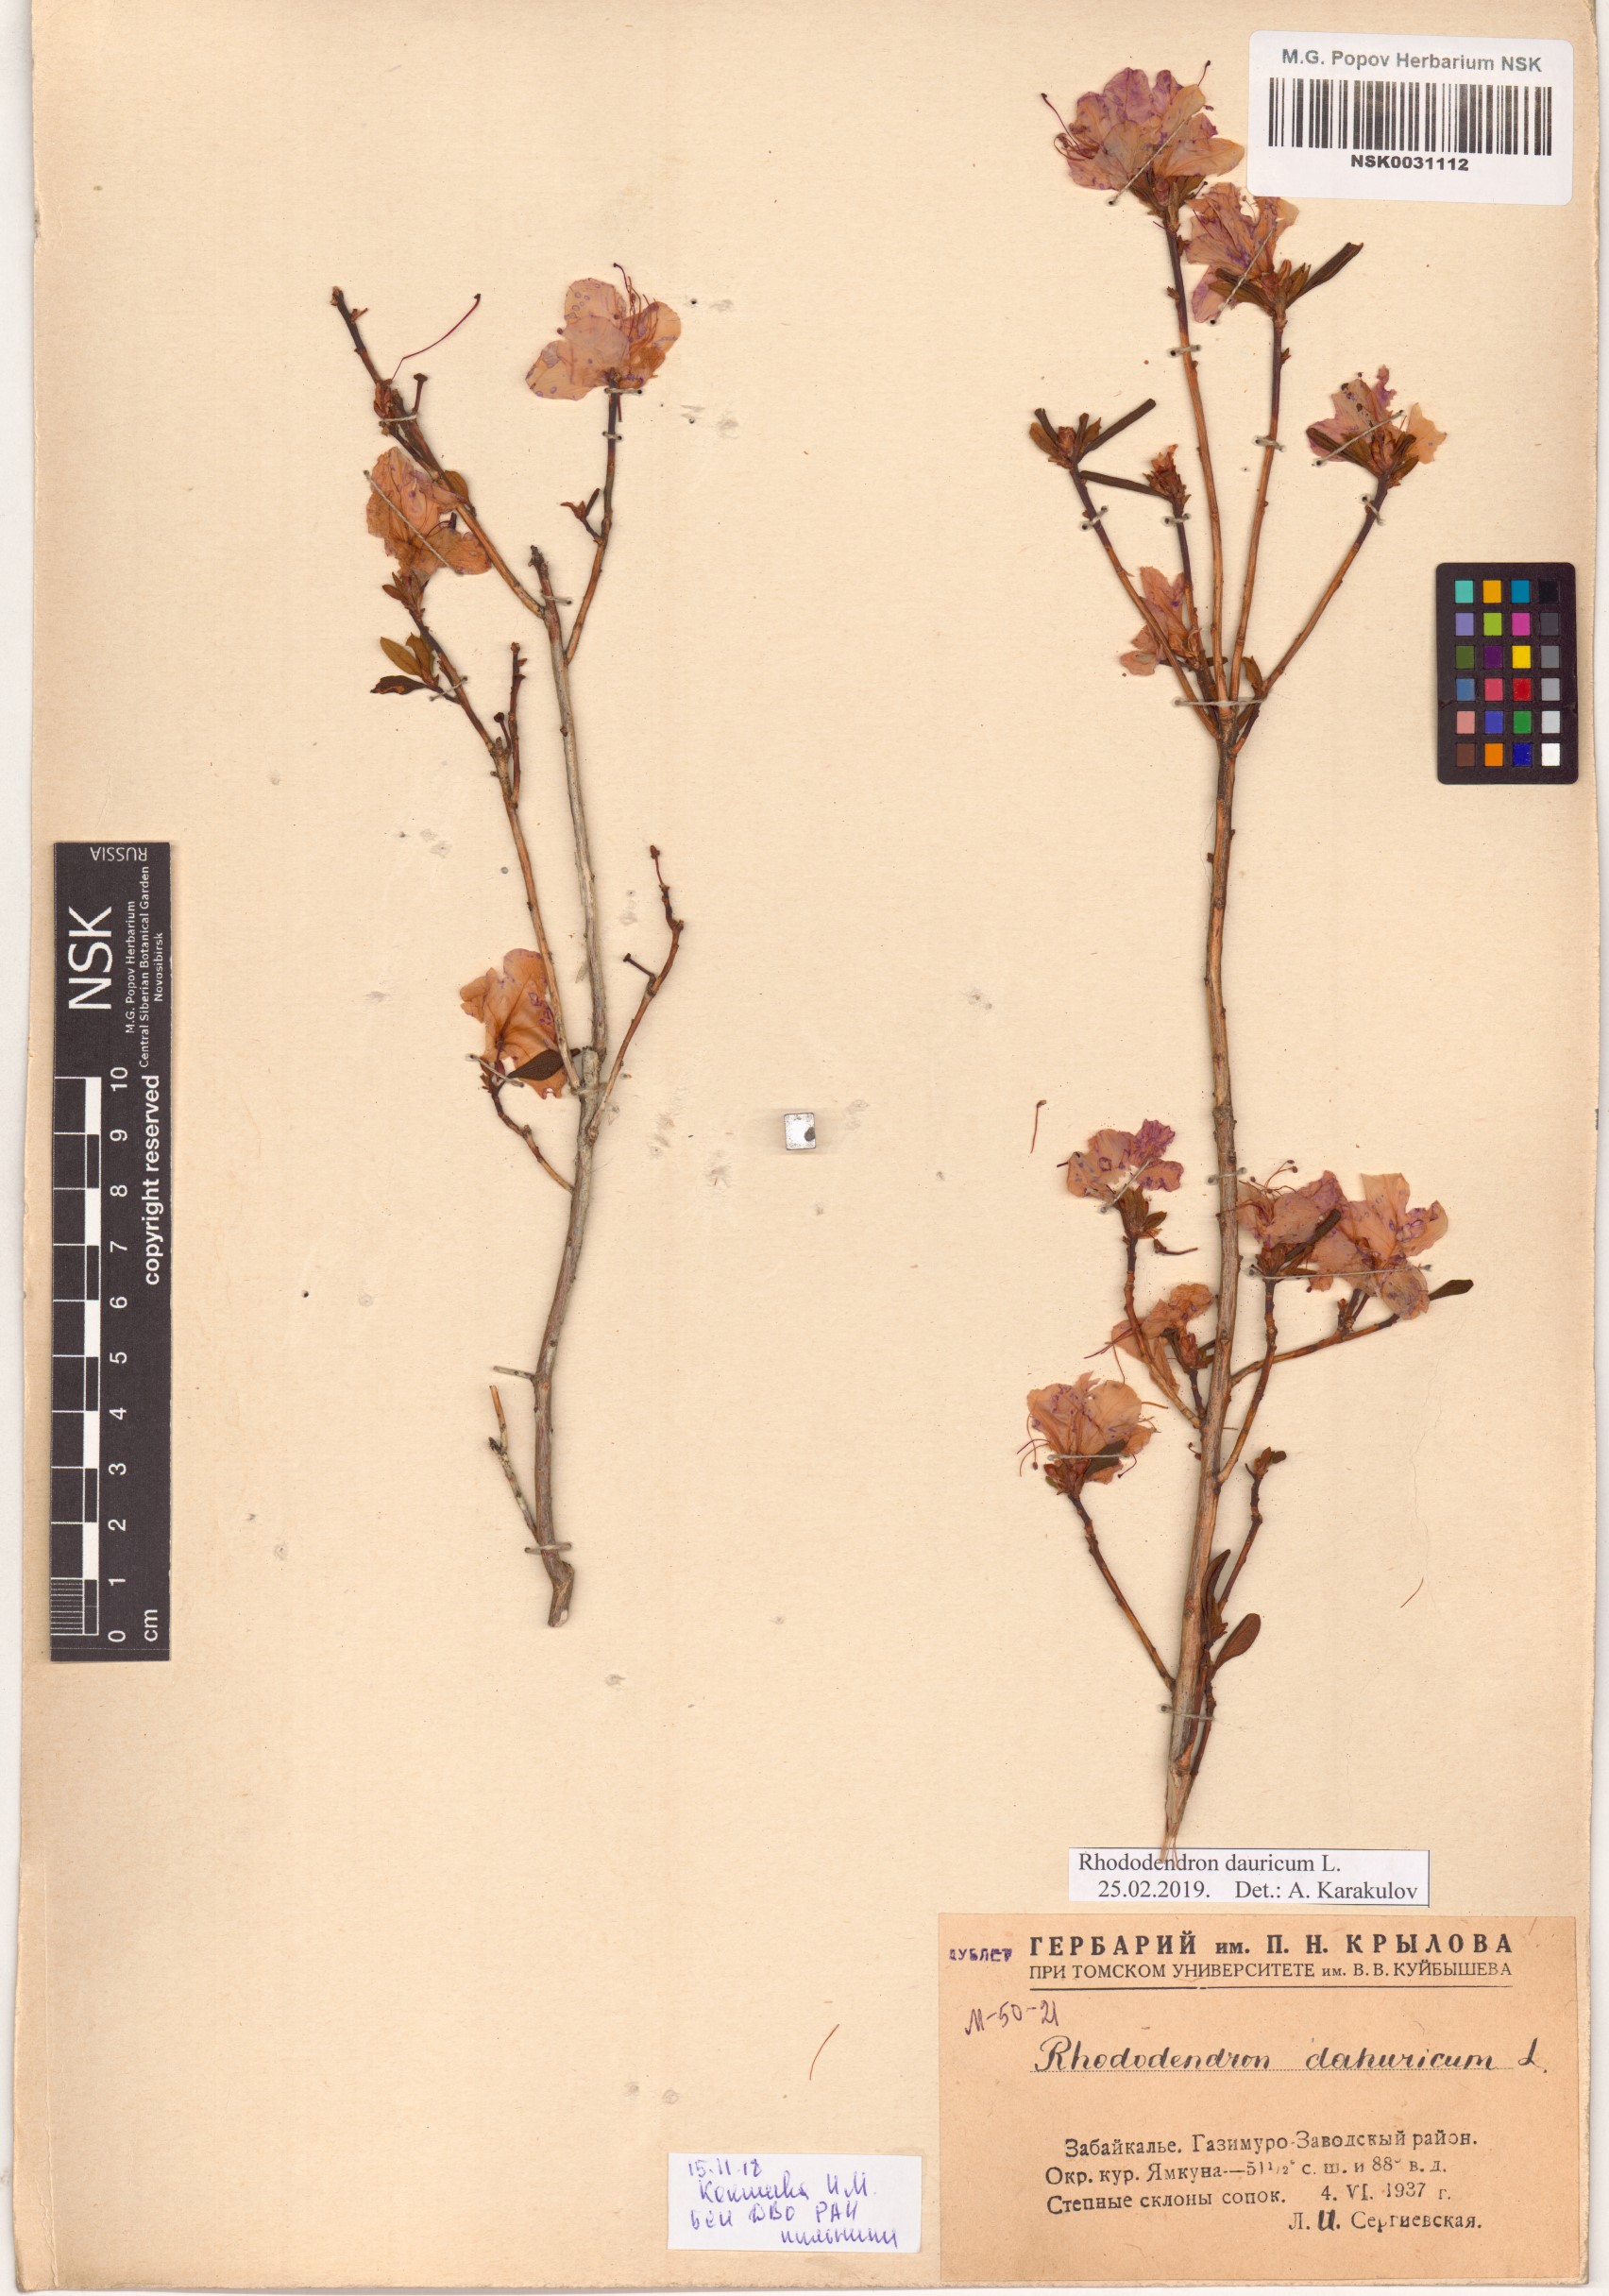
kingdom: Plantae
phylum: Tracheophyta
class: Magnoliopsida
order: Ericales
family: Ericaceae
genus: Rhododendron
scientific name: Rhododendron dauricum
